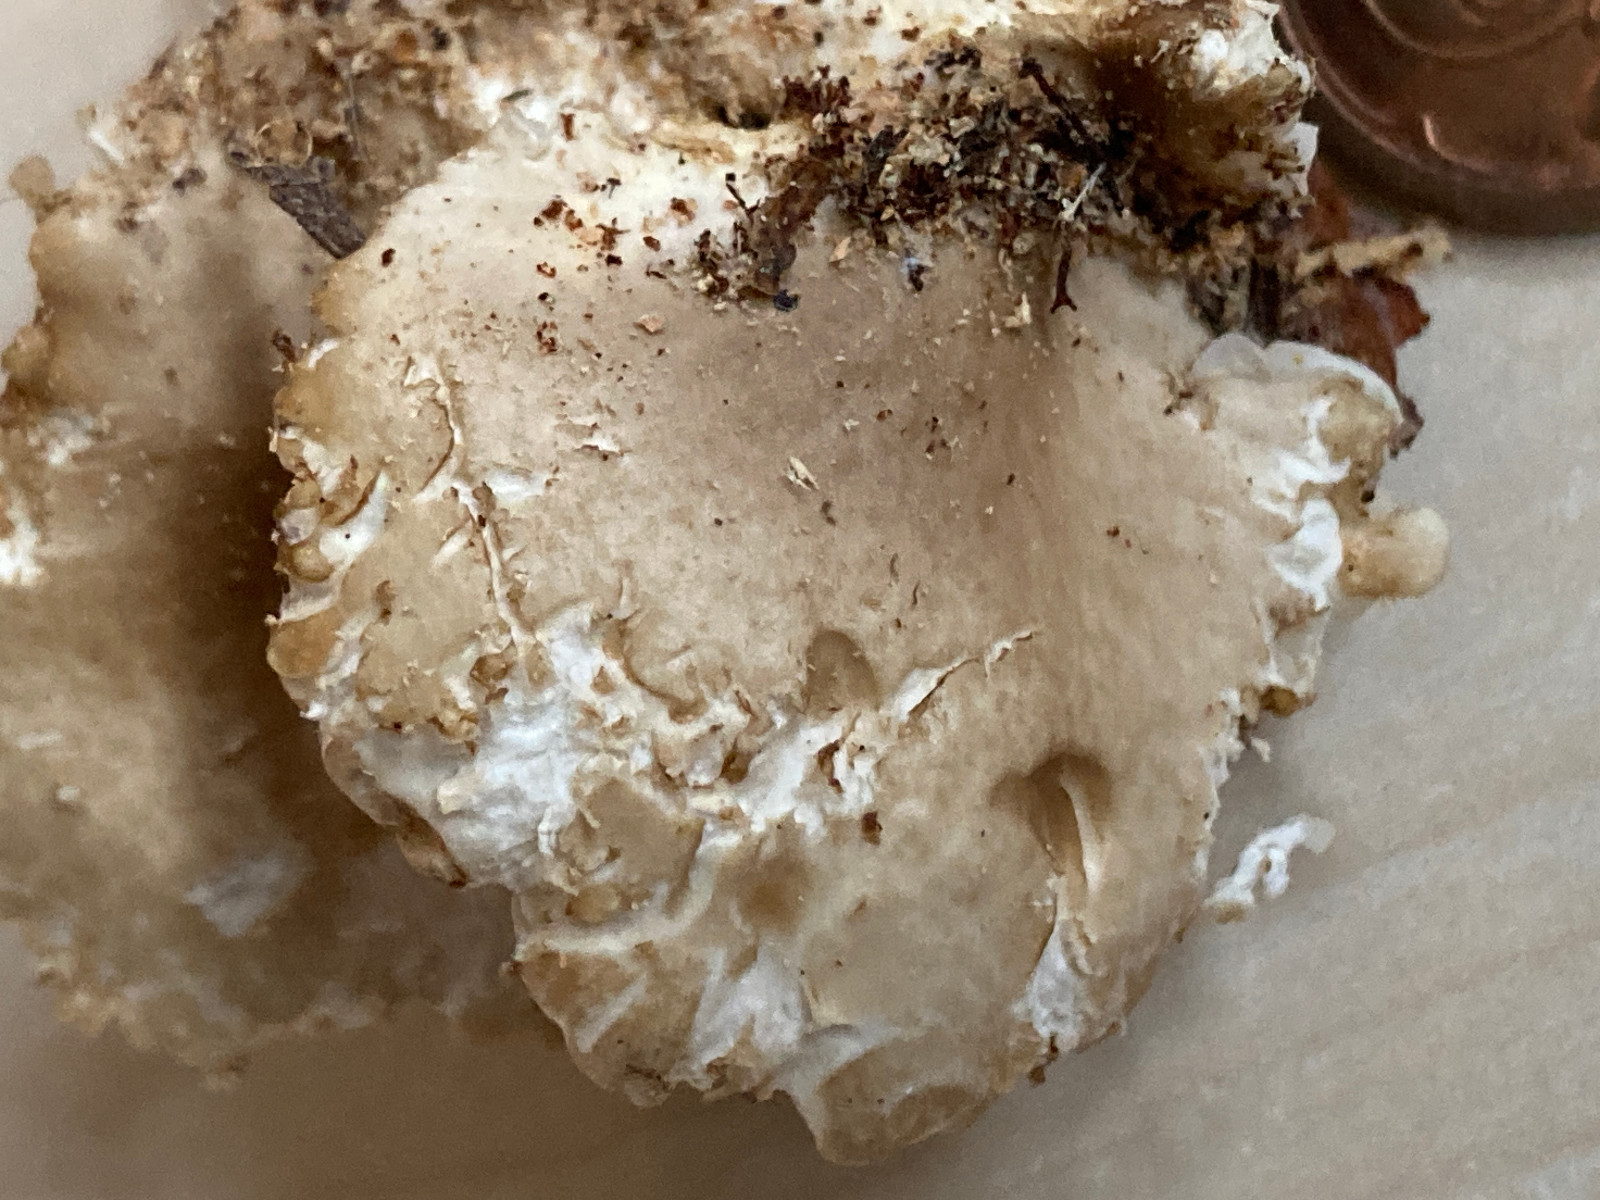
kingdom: Fungi
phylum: Basidiomycota
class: Agaricomycetes
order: Agaricales
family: Pleurotaceae
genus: Pleurotus
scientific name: Pleurotus pulmonarius
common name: sommer-østershat
